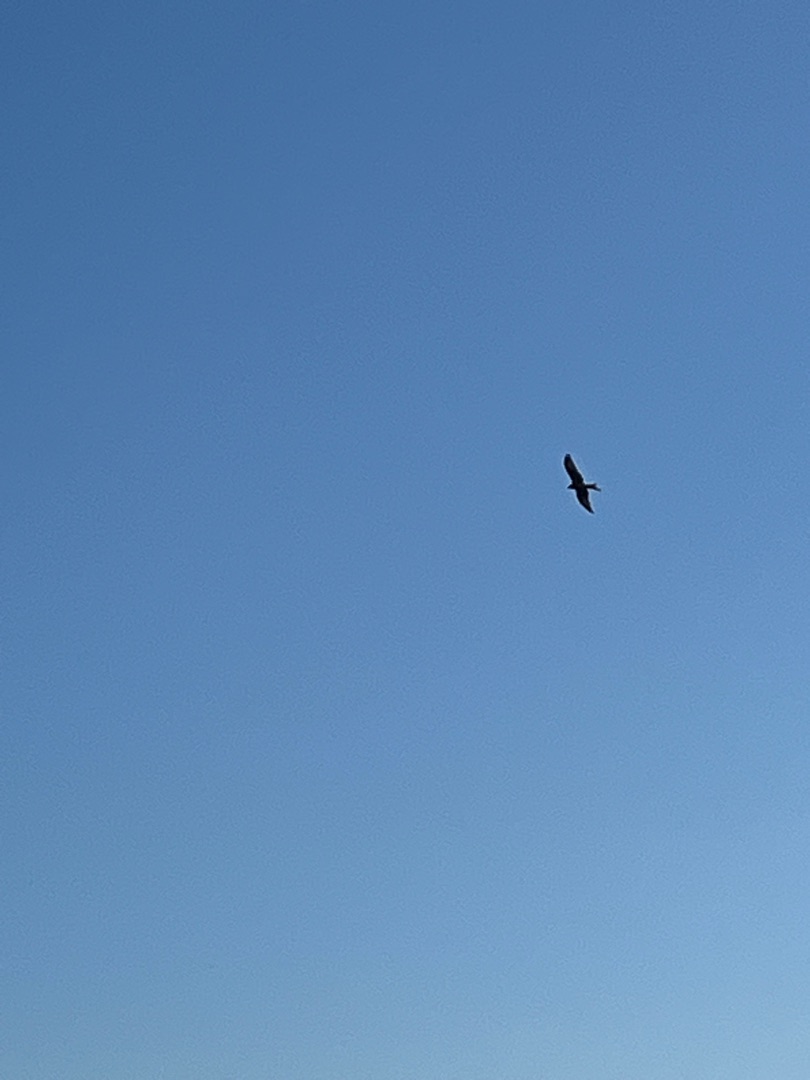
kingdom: Animalia
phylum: Chordata
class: Aves
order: Accipitriformes
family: Accipitridae
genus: Milvus
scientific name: Milvus milvus
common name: Rød glente
